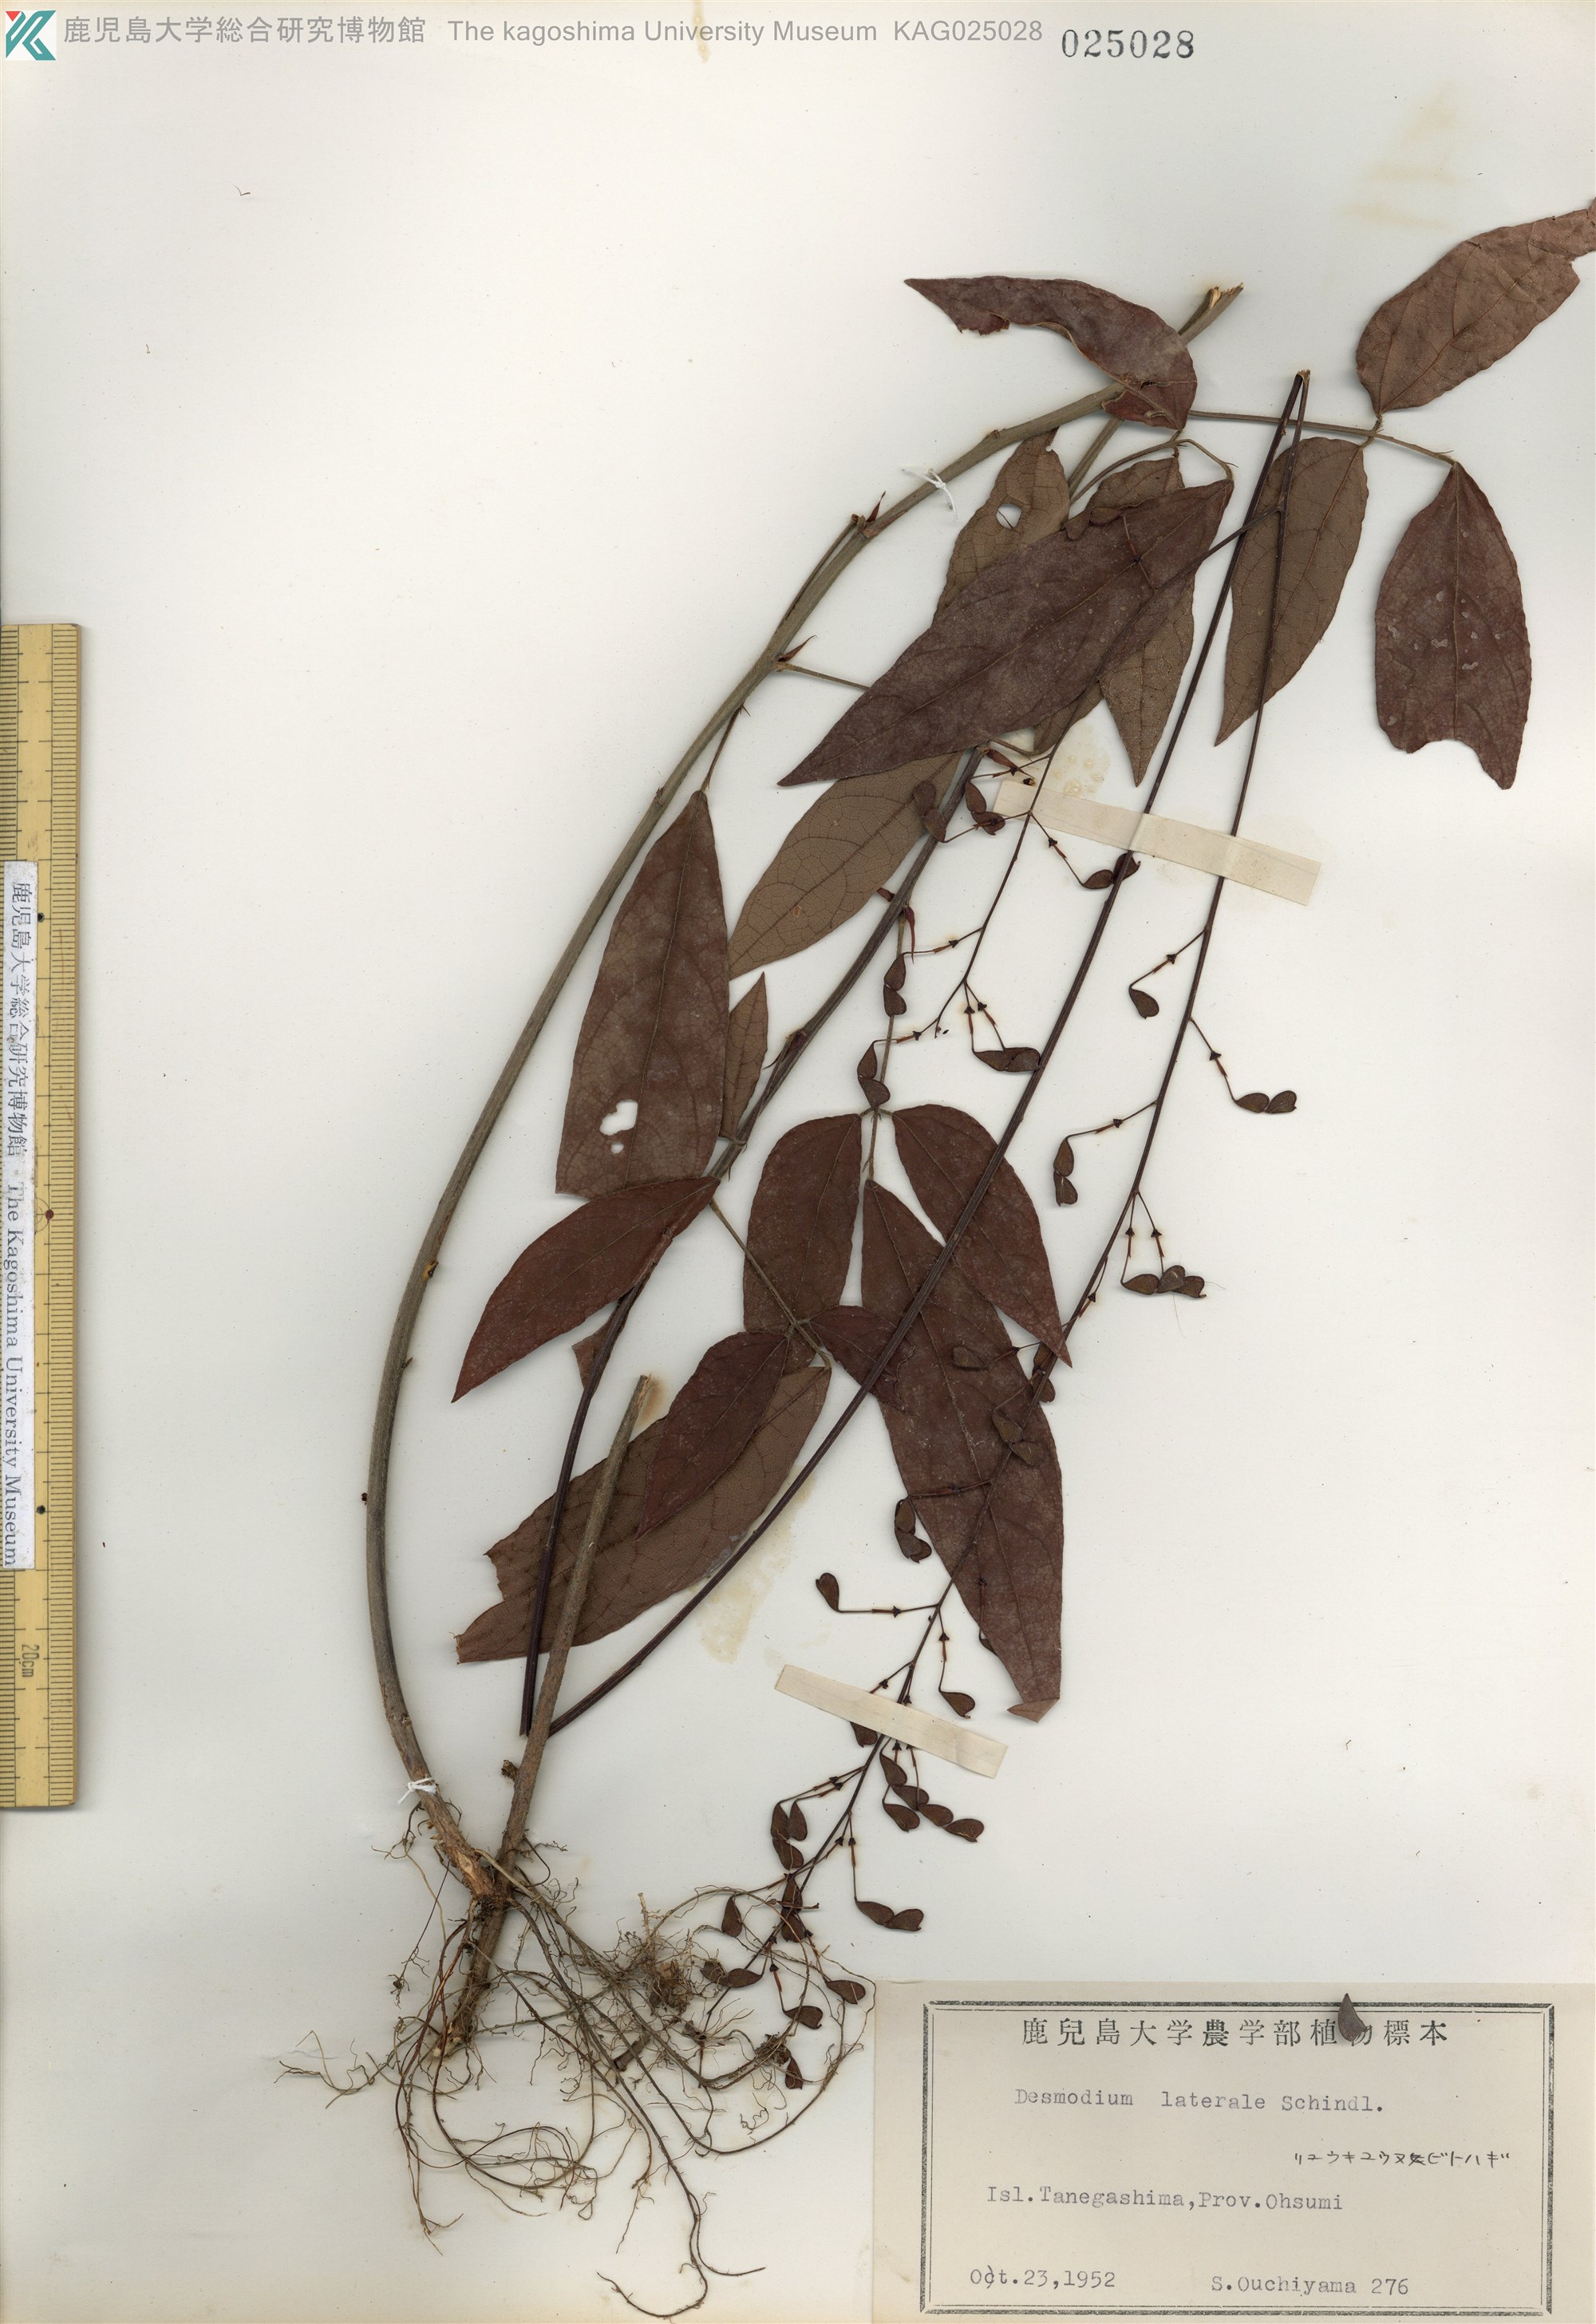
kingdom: Plantae
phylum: Tracheophyta
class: Magnoliopsida
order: Fabales
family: Fabaceae
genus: Hylodesmum
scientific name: Hylodesmum laterale
